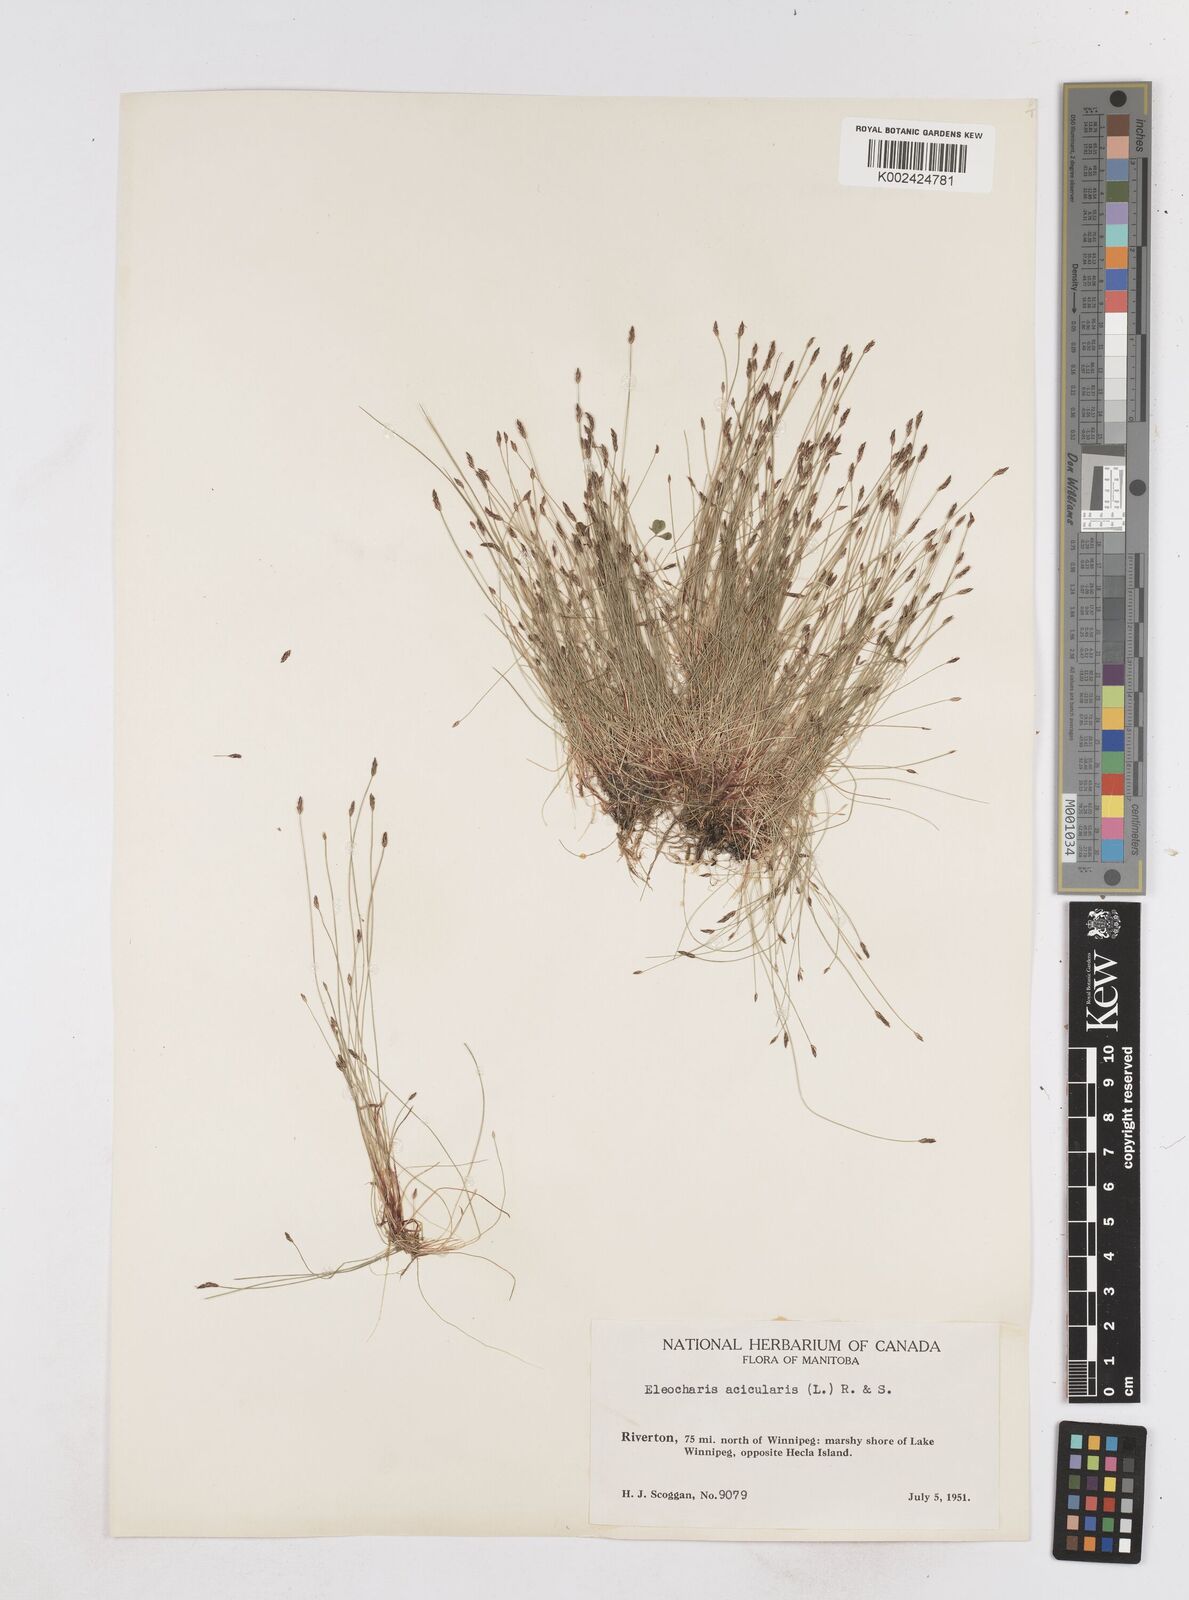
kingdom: Plantae
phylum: Tracheophyta
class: Liliopsida
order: Poales
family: Cyperaceae
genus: Eleocharis
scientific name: Eleocharis acicularis
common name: Needle spike-rush
